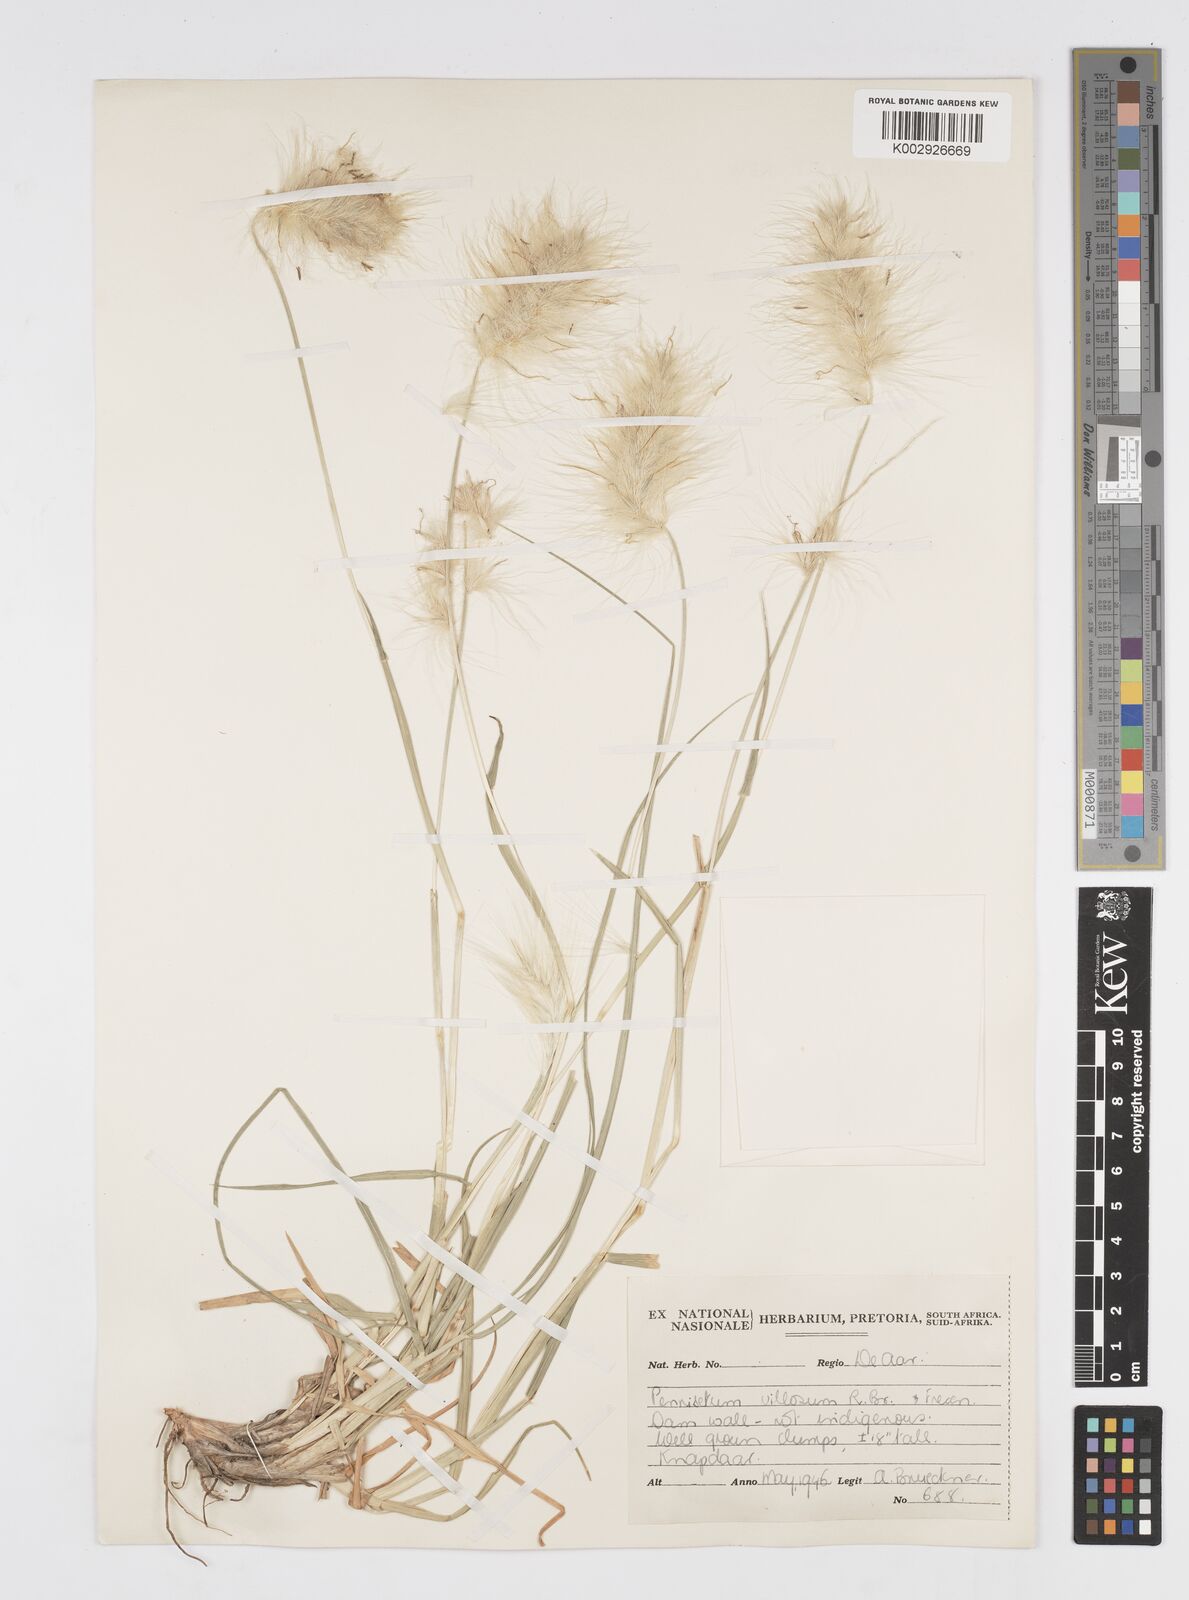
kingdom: Plantae
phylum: Tracheophyta
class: Liliopsida
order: Poales
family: Poaceae
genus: Cenchrus
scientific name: Cenchrus longisetus
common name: Feathertop
